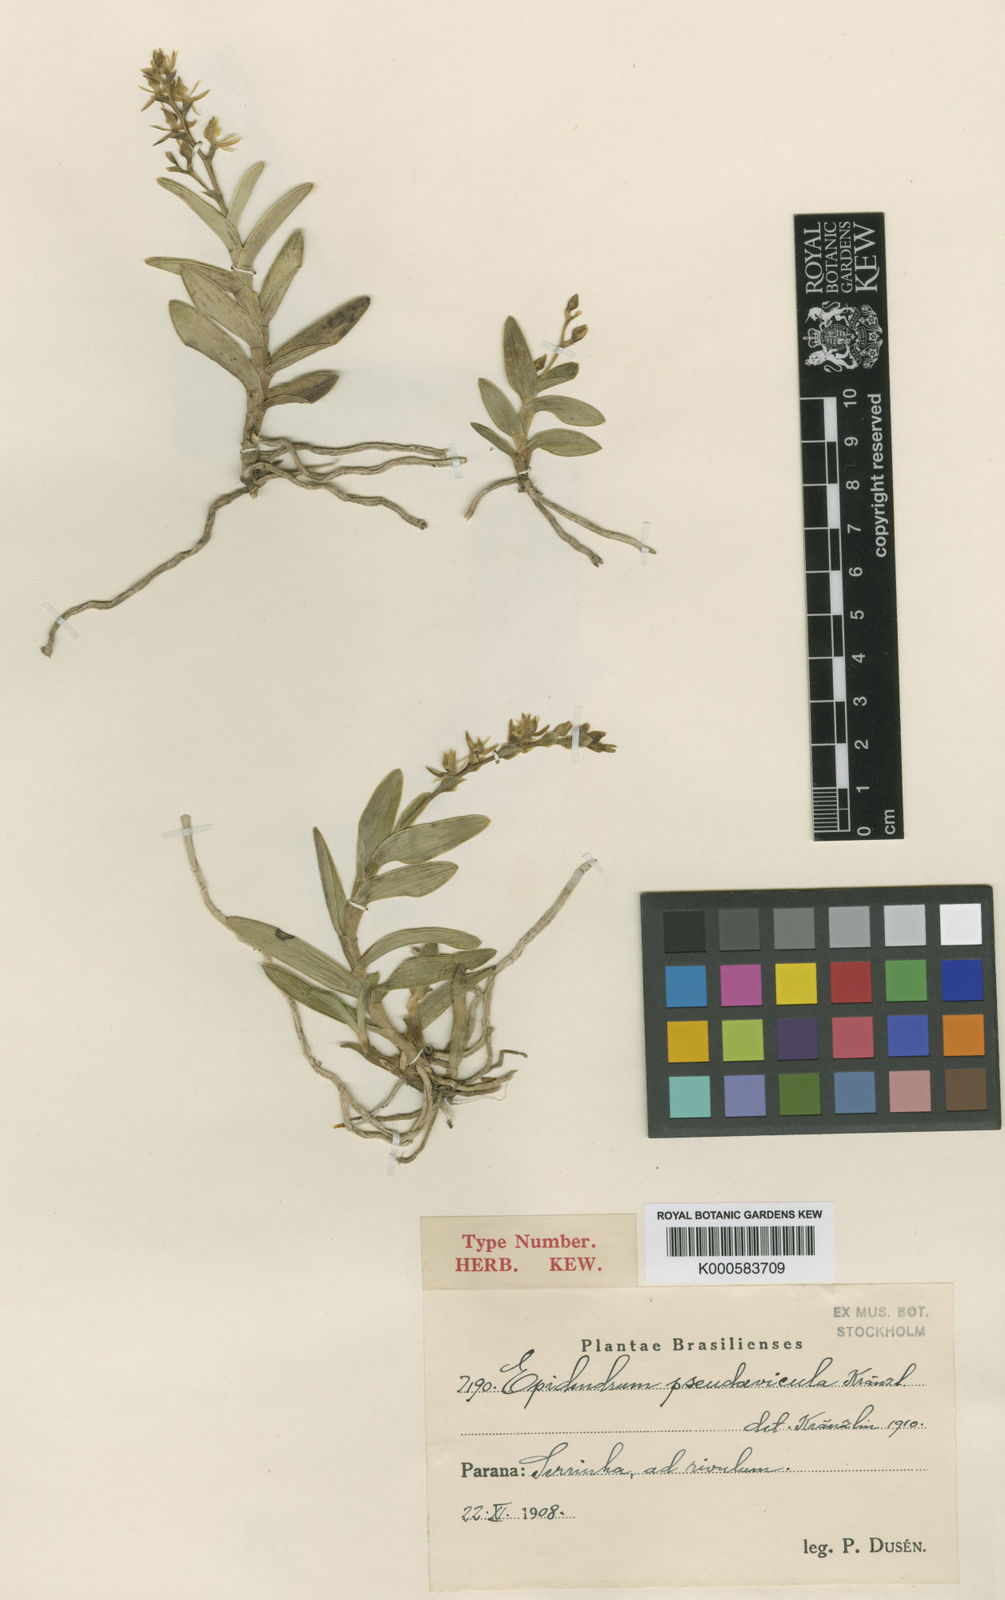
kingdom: Plantae
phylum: Tracheophyta
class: Liliopsida
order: Asparagales
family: Orchidaceae
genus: Epidendrum
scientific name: Epidendrum pseudavicula
